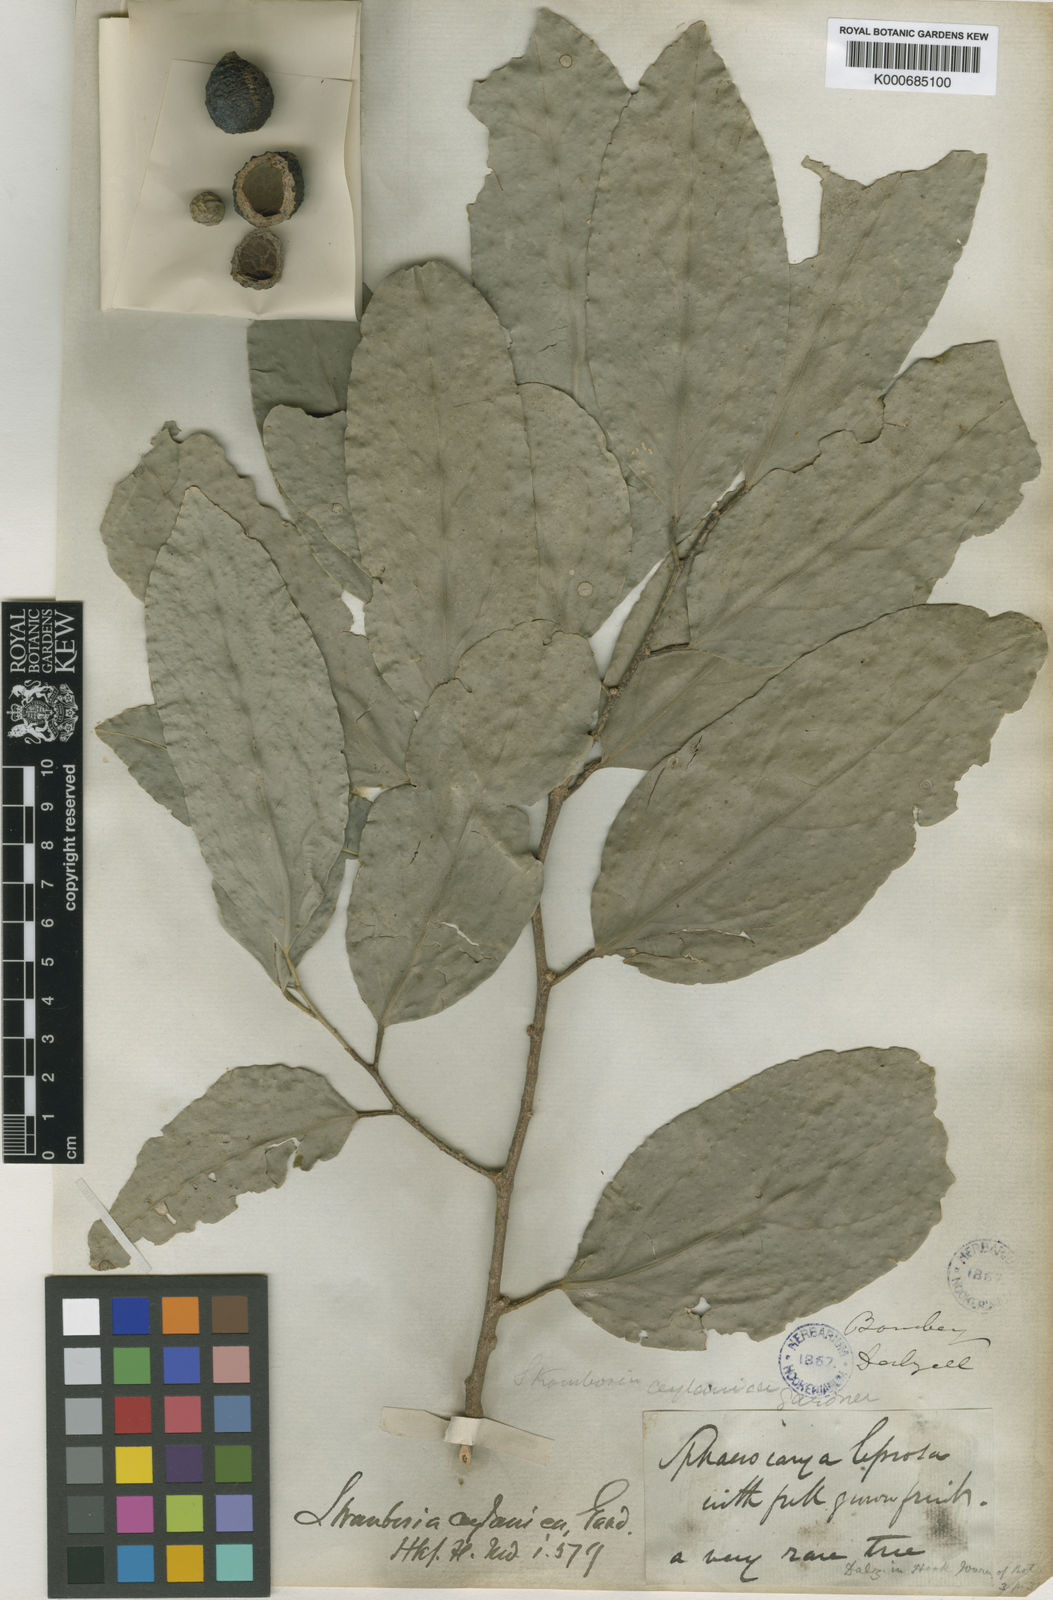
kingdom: Plantae
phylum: Tracheophyta
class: Magnoliopsida
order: Santalales
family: Strombosiaceae
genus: Strombosia
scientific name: Strombosia ceylanica
